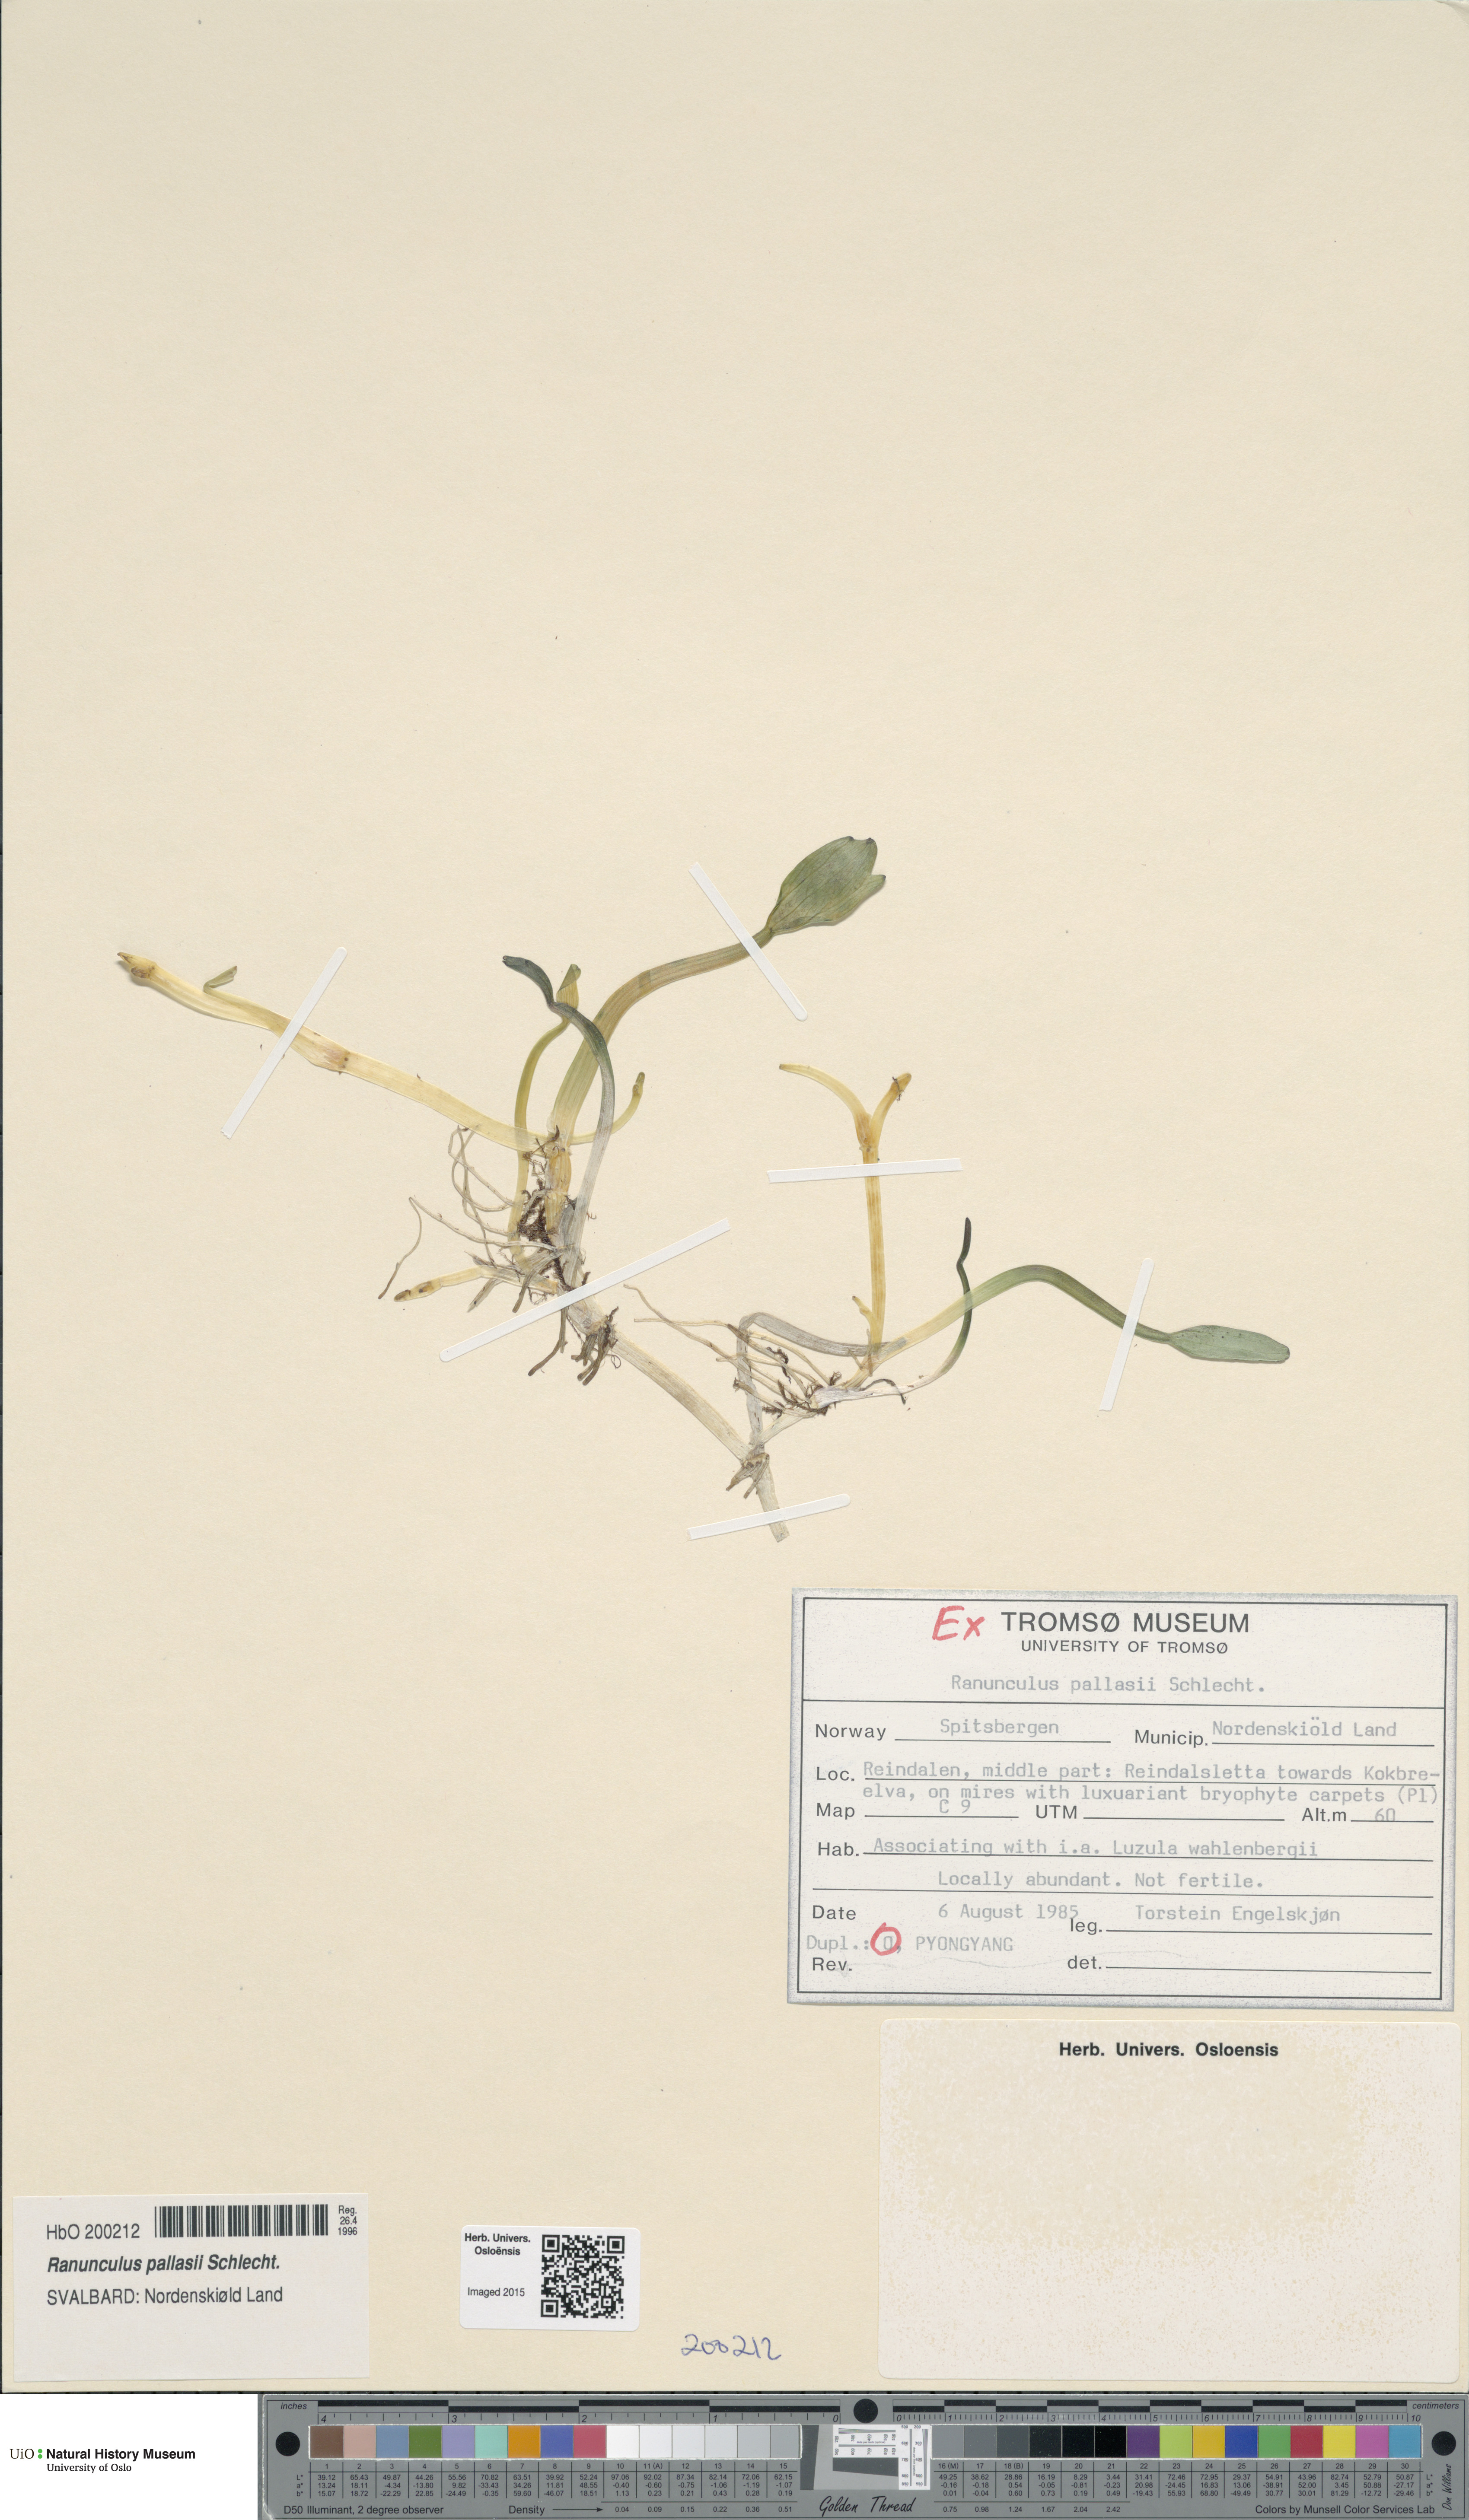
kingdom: Plantae
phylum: Tracheophyta
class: Magnoliopsida
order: Ranunculales
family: Ranunculaceae
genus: Coptidium
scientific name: Coptidium pallasii
